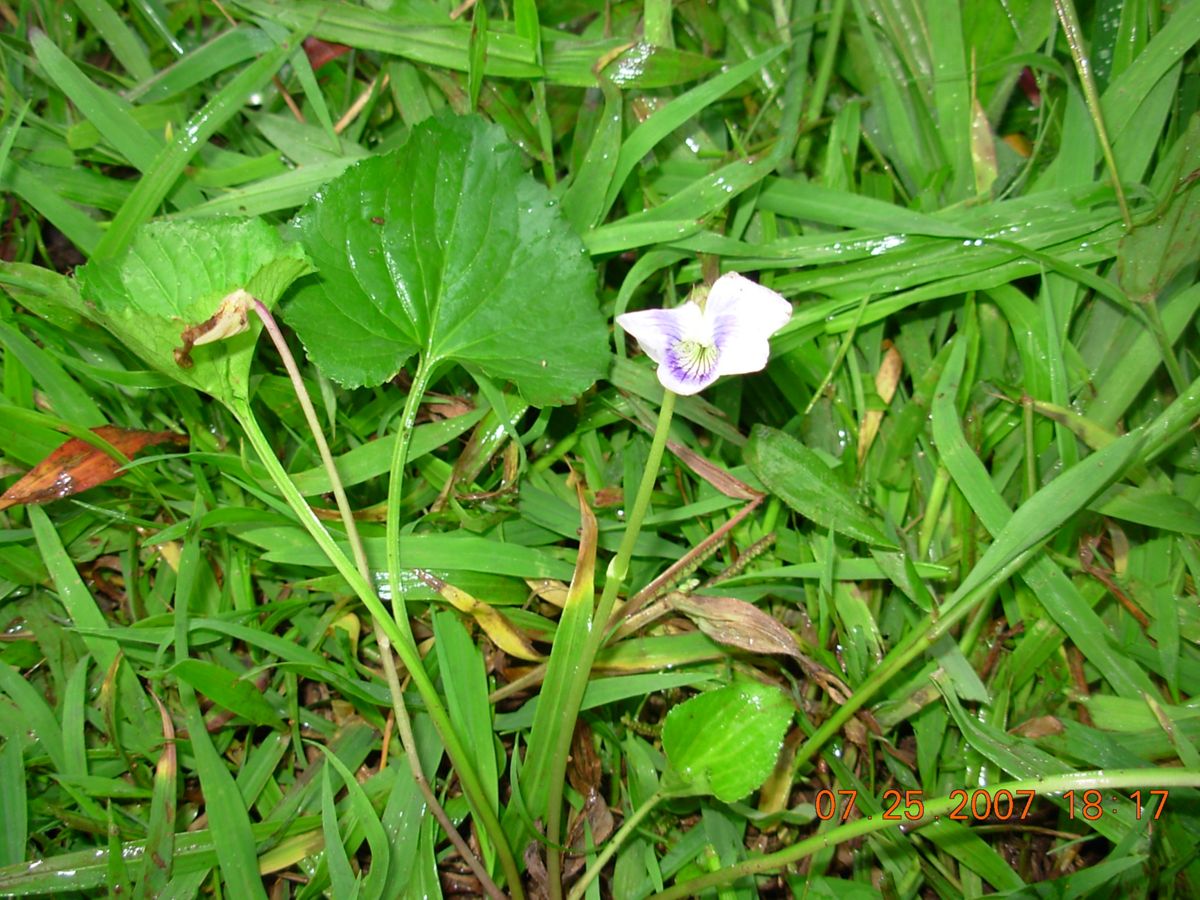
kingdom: Plantae
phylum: Tracheophyta
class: Magnoliopsida
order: Malpighiales
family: Violaceae
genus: Viola
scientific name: Viola odorata
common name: Sweet violet
